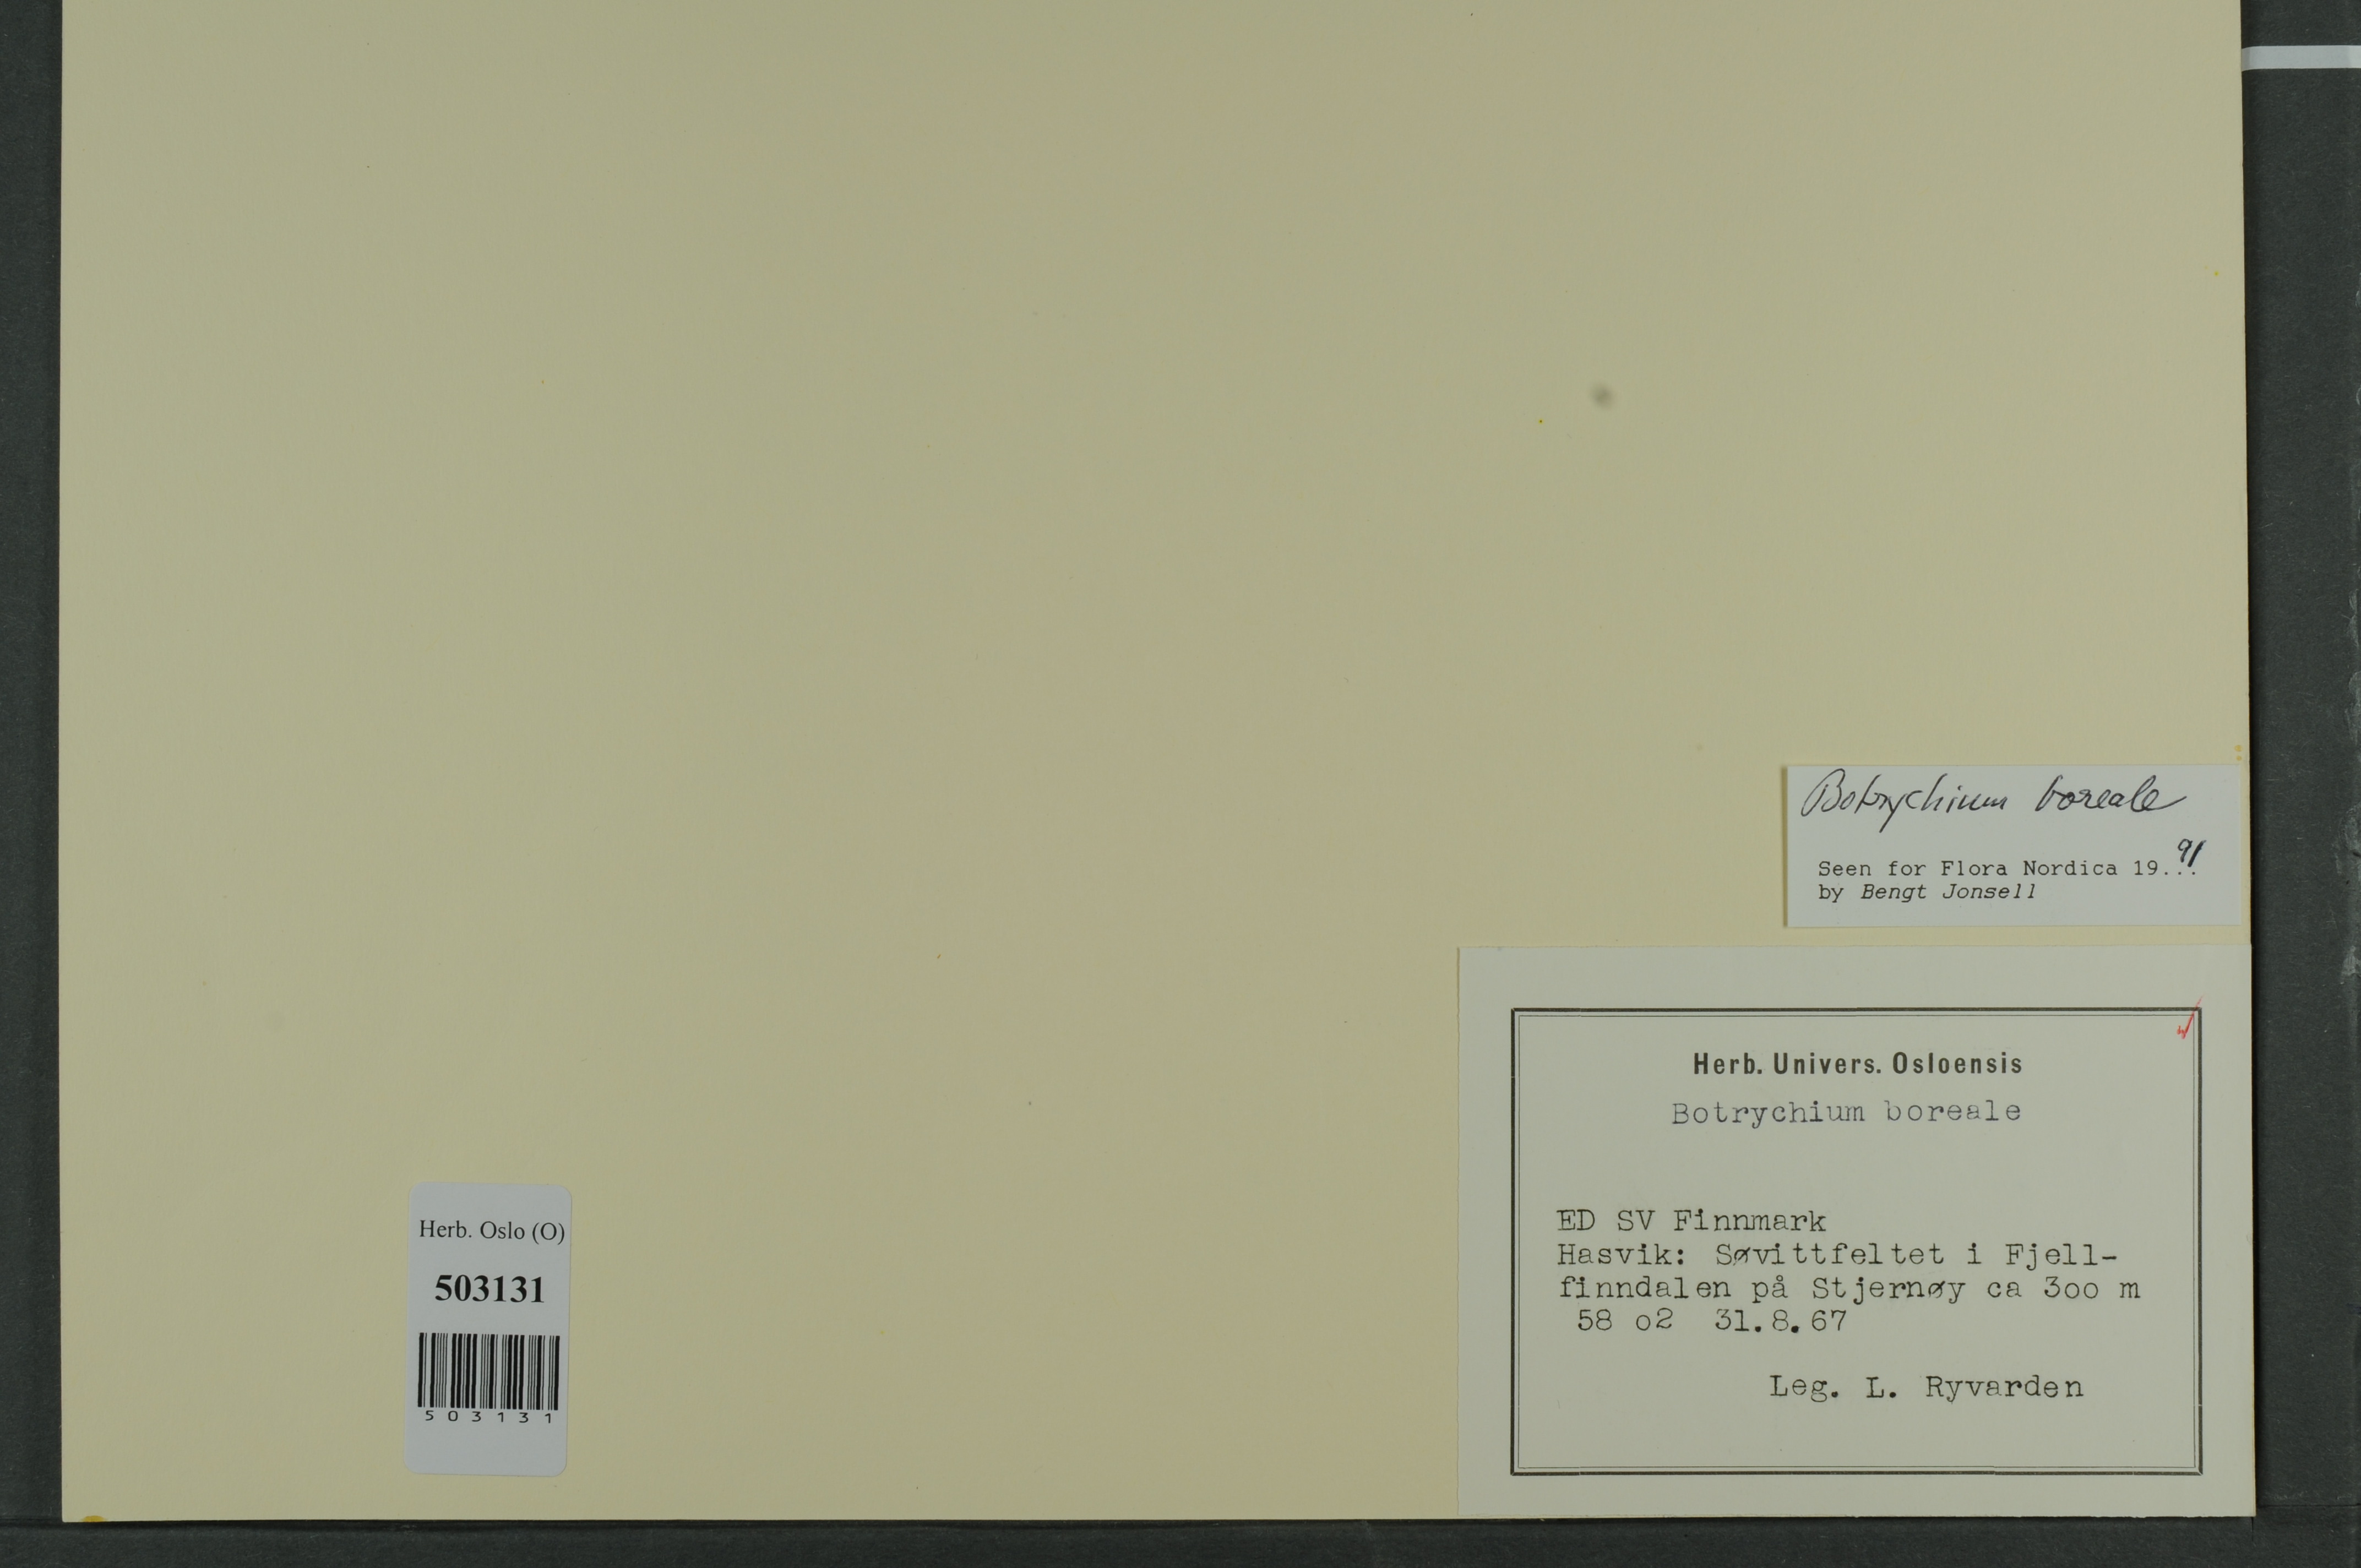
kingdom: Plantae
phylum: Tracheophyta
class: Polypodiopsida
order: Ophioglossales
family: Ophioglossaceae
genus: Botrychium
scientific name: Botrychium boreale
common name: Boreal moonwort
